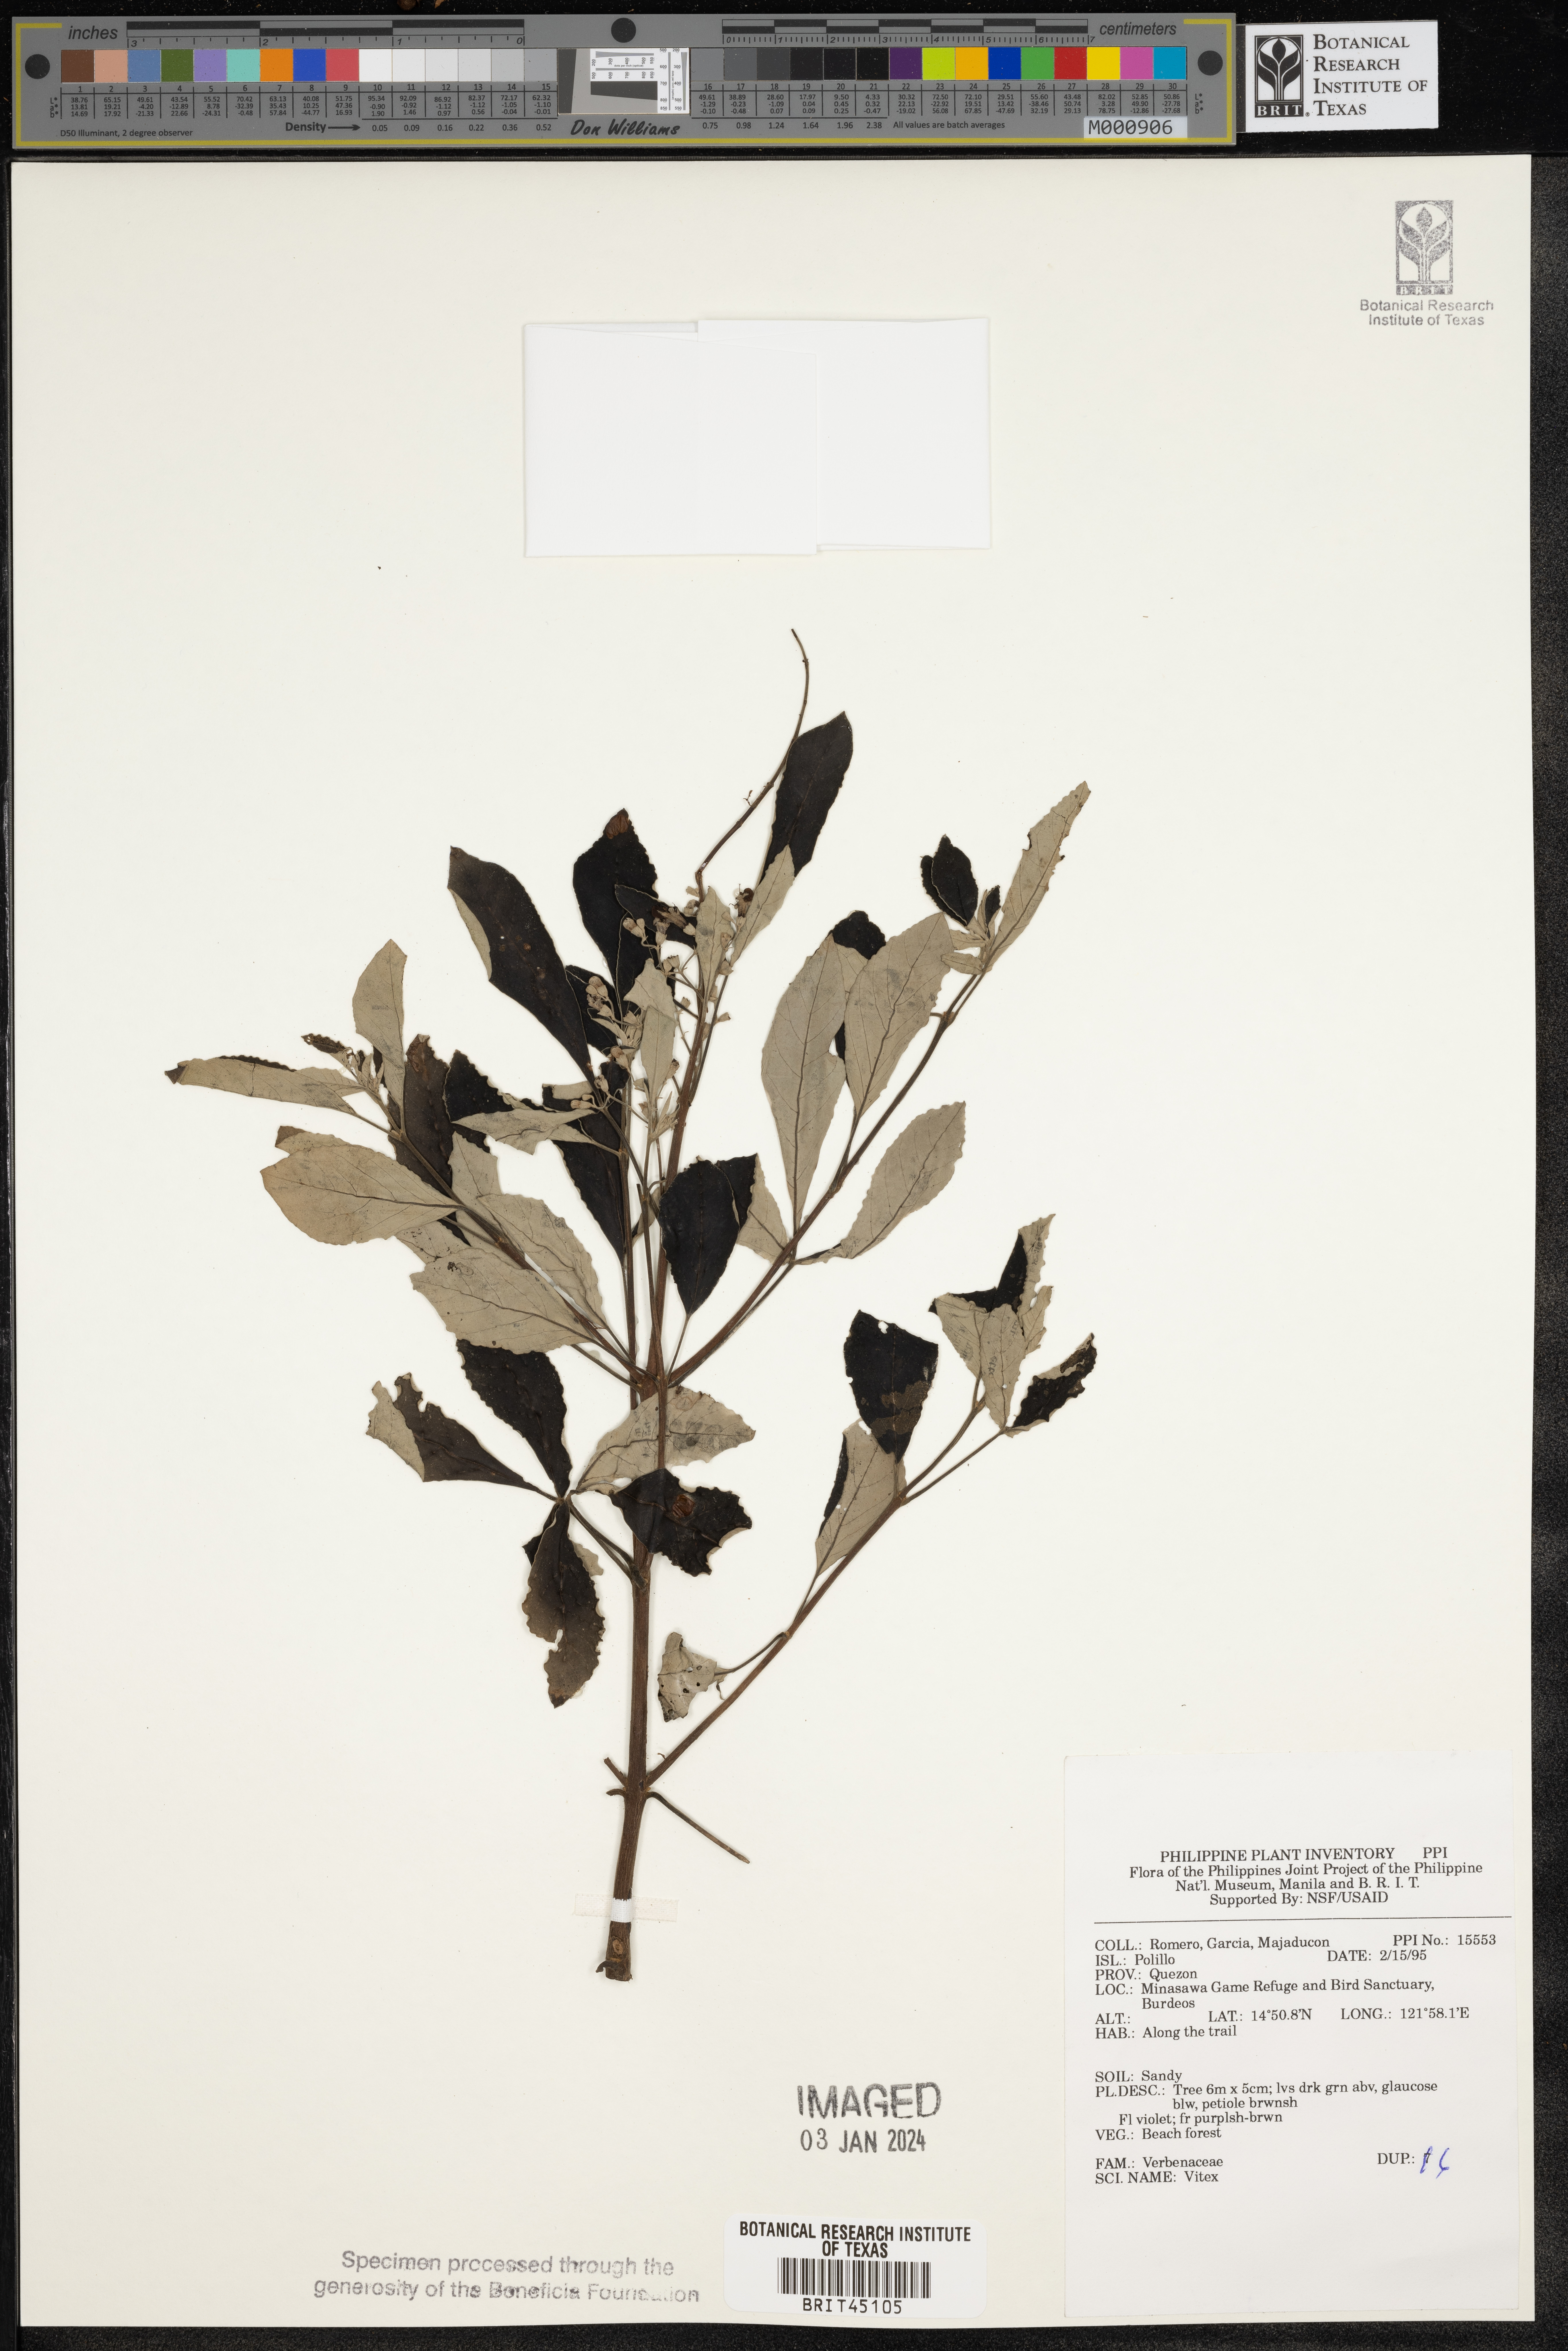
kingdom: Plantae
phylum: Tracheophyta
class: Magnoliopsida
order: Lamiales
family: Lamiaceae
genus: Vitex
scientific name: Vitex
